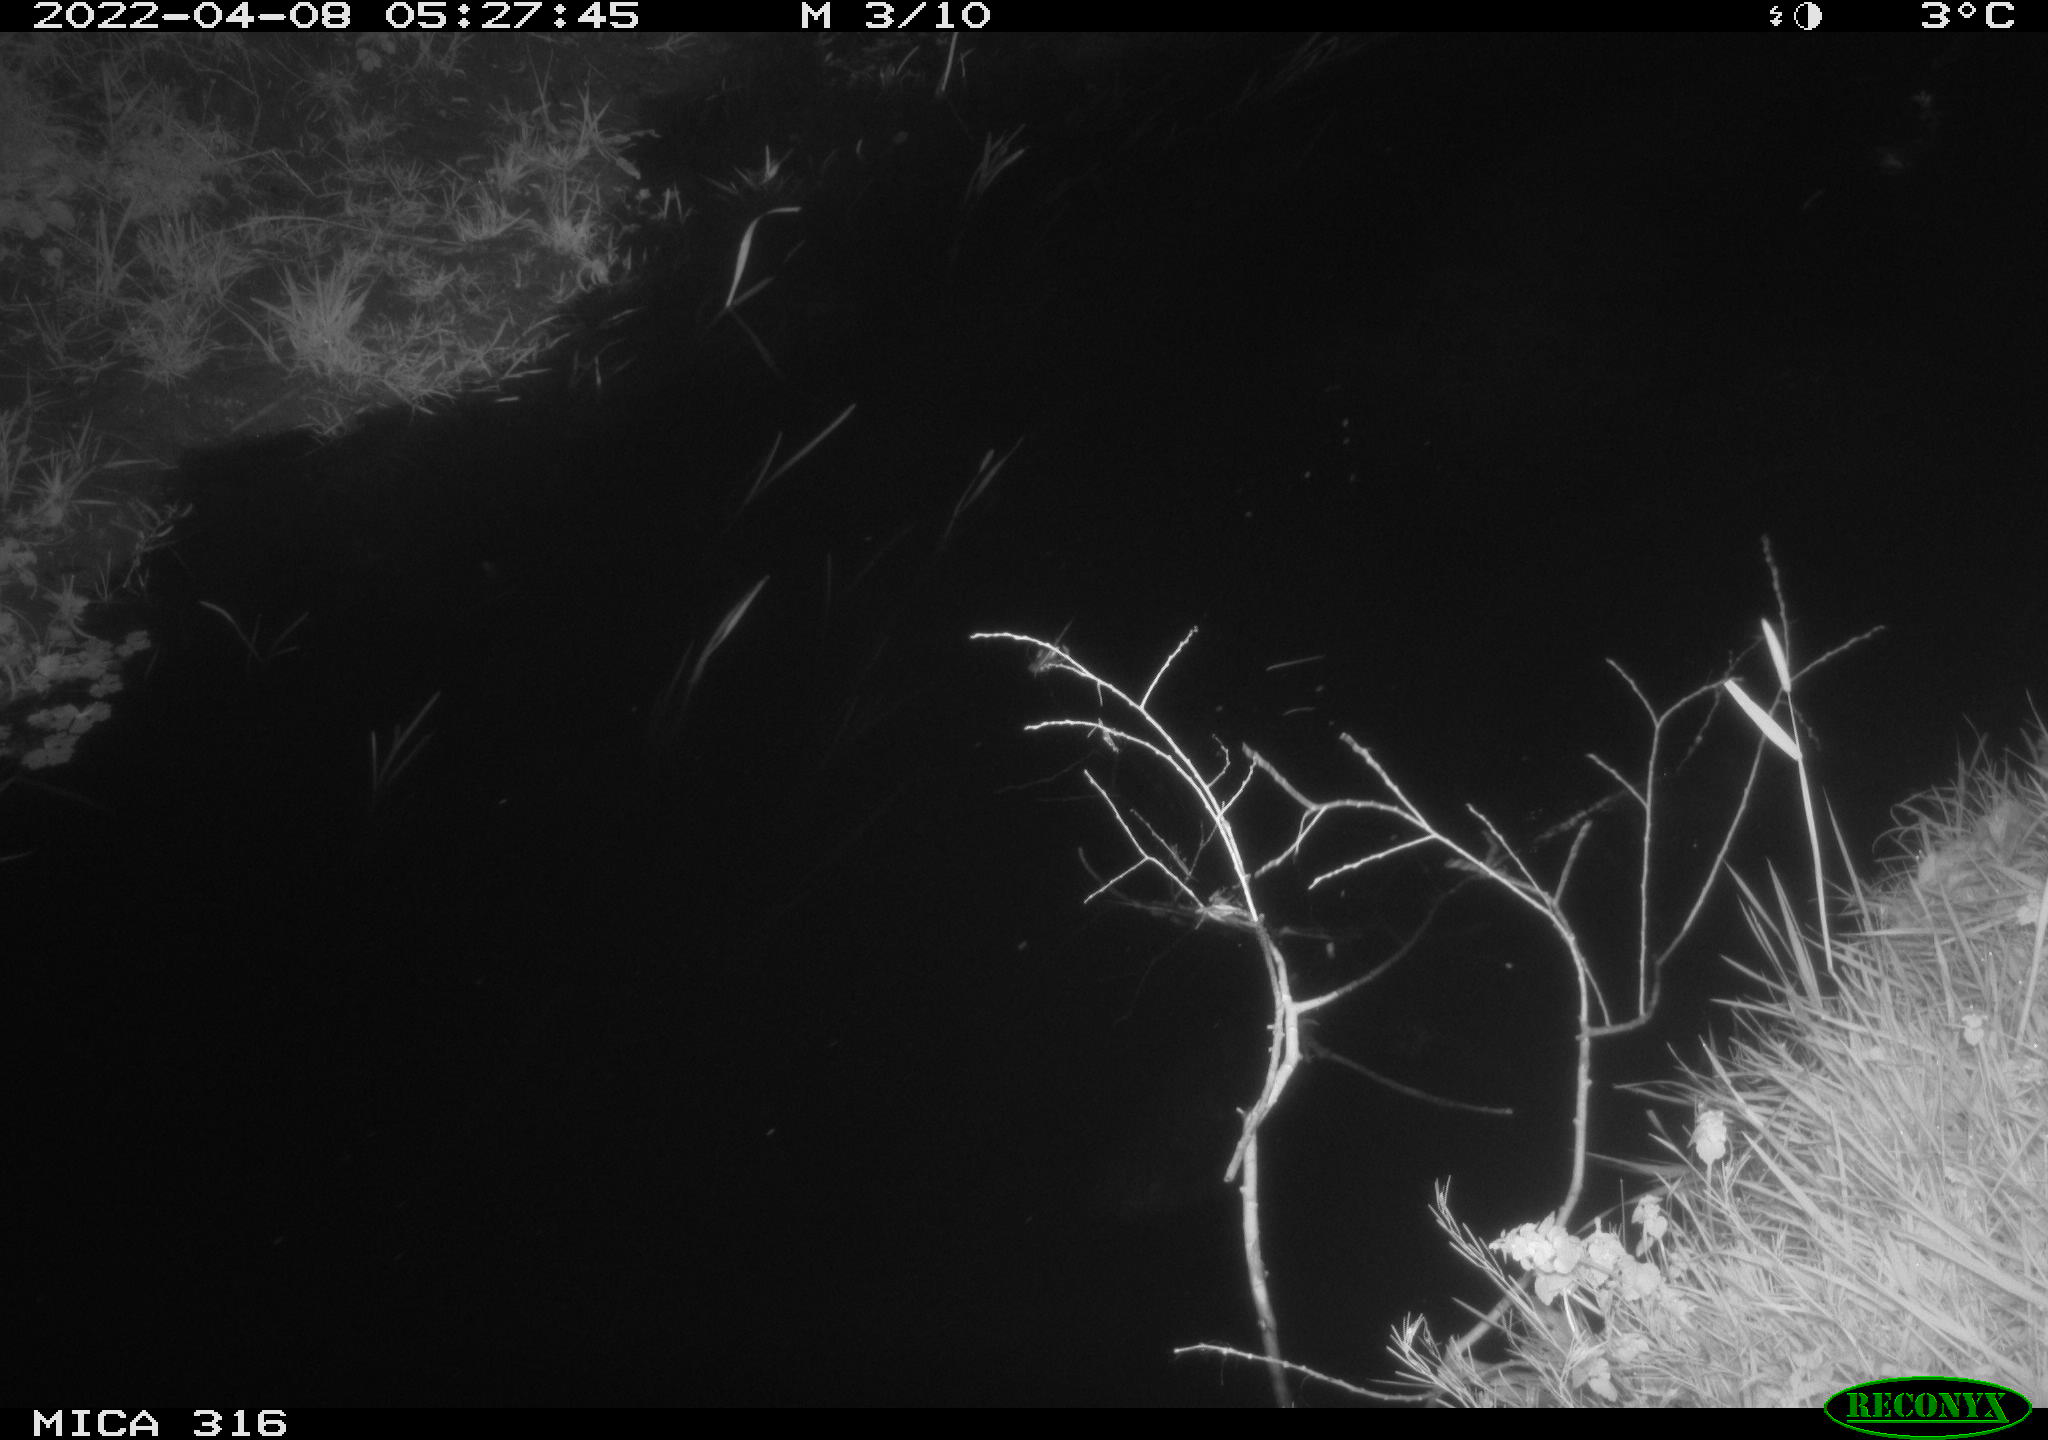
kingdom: Animalia
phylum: Chordata
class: Aves
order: Anseriformes
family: Anatidae
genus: Anas
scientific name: Anas platyrhynchos
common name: Mallard
